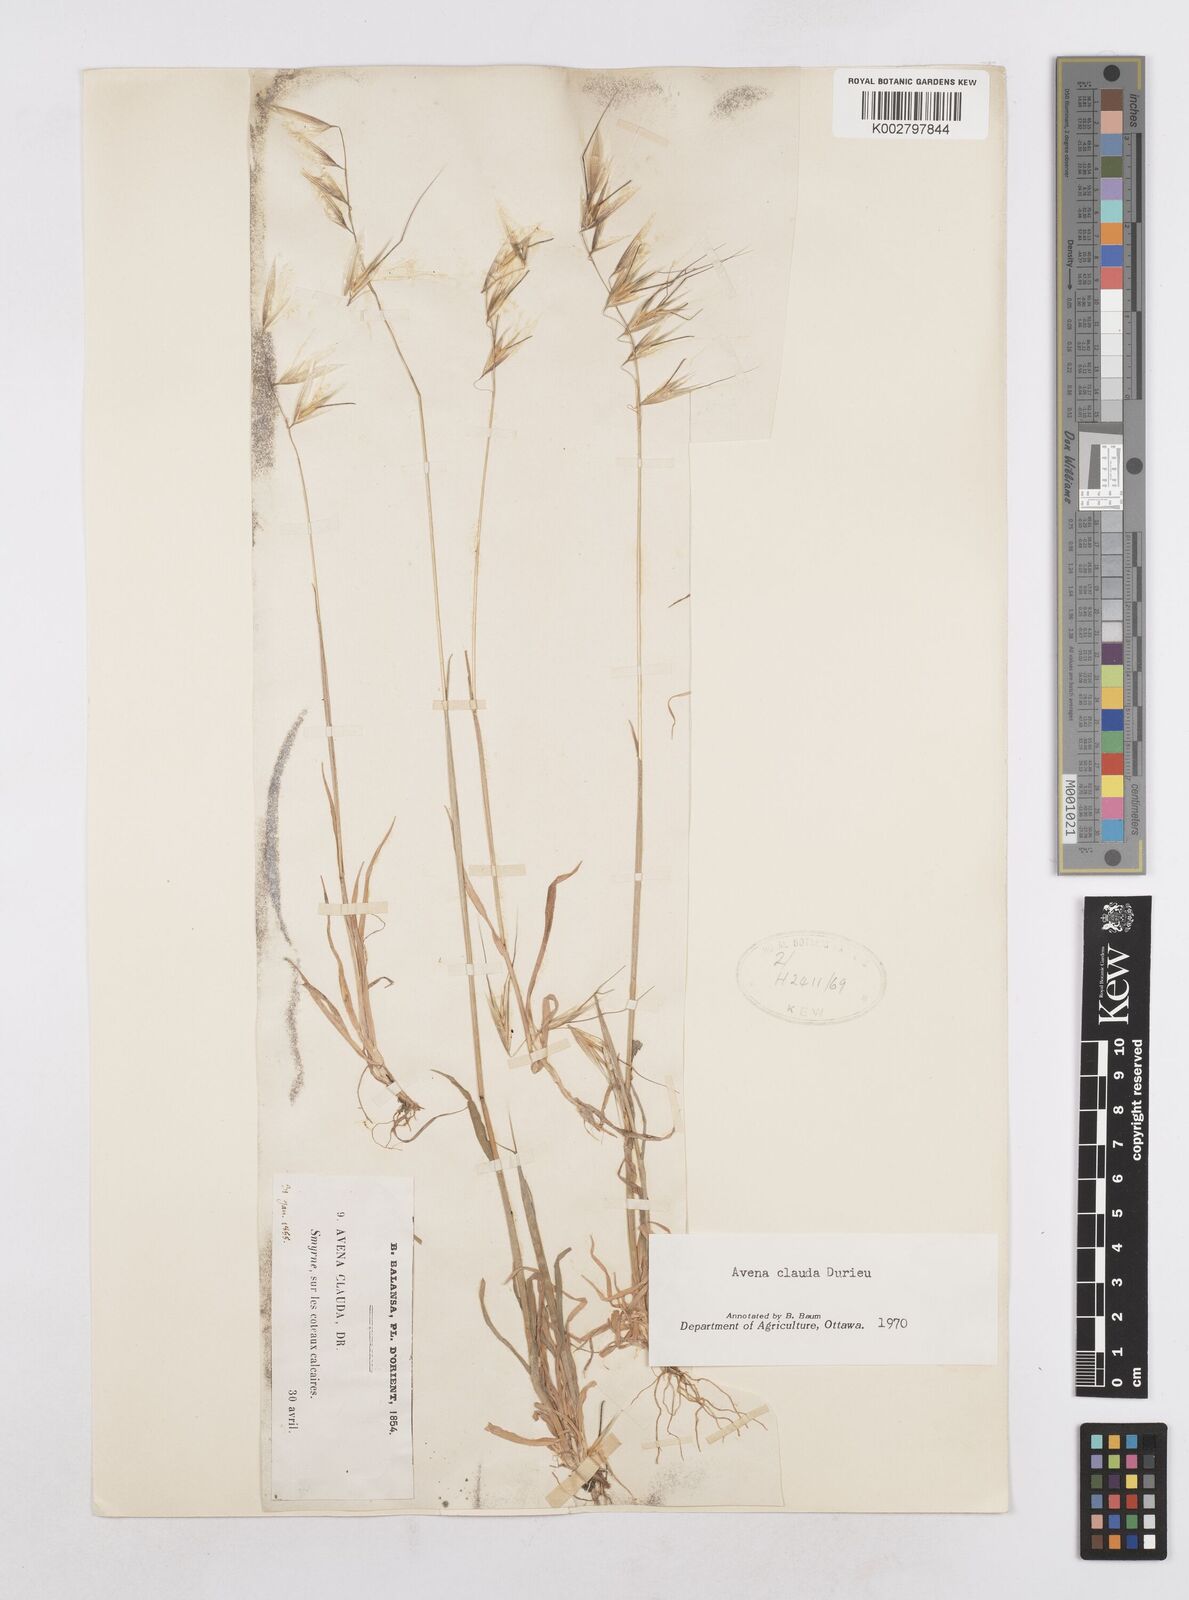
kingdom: Plantae
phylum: Tracheophyta
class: Liliopsida
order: Poales
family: Poaceae
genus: Avena
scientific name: Avena clauda
